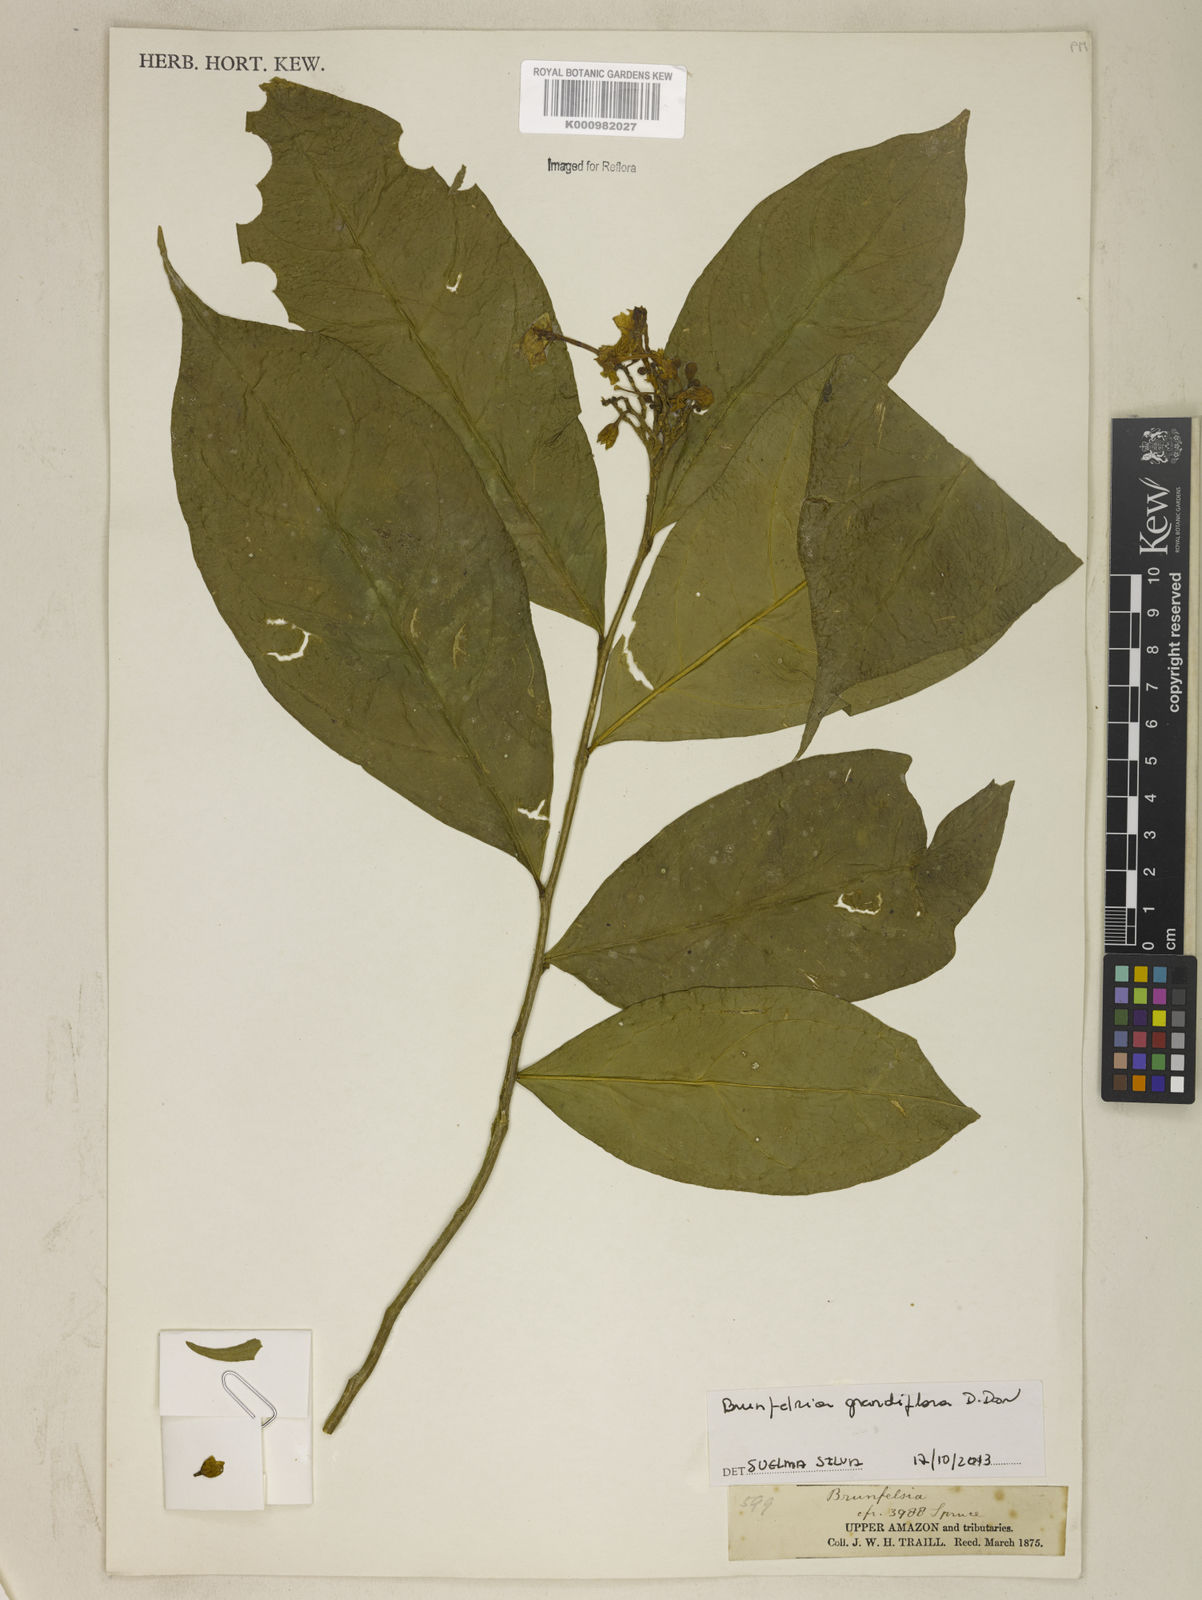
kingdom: Plantae
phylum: Tracheophyta
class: Magnoliopsida
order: Solanales
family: Solanaceae
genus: Brunfelsia
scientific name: Brunfelsia grandiflora
